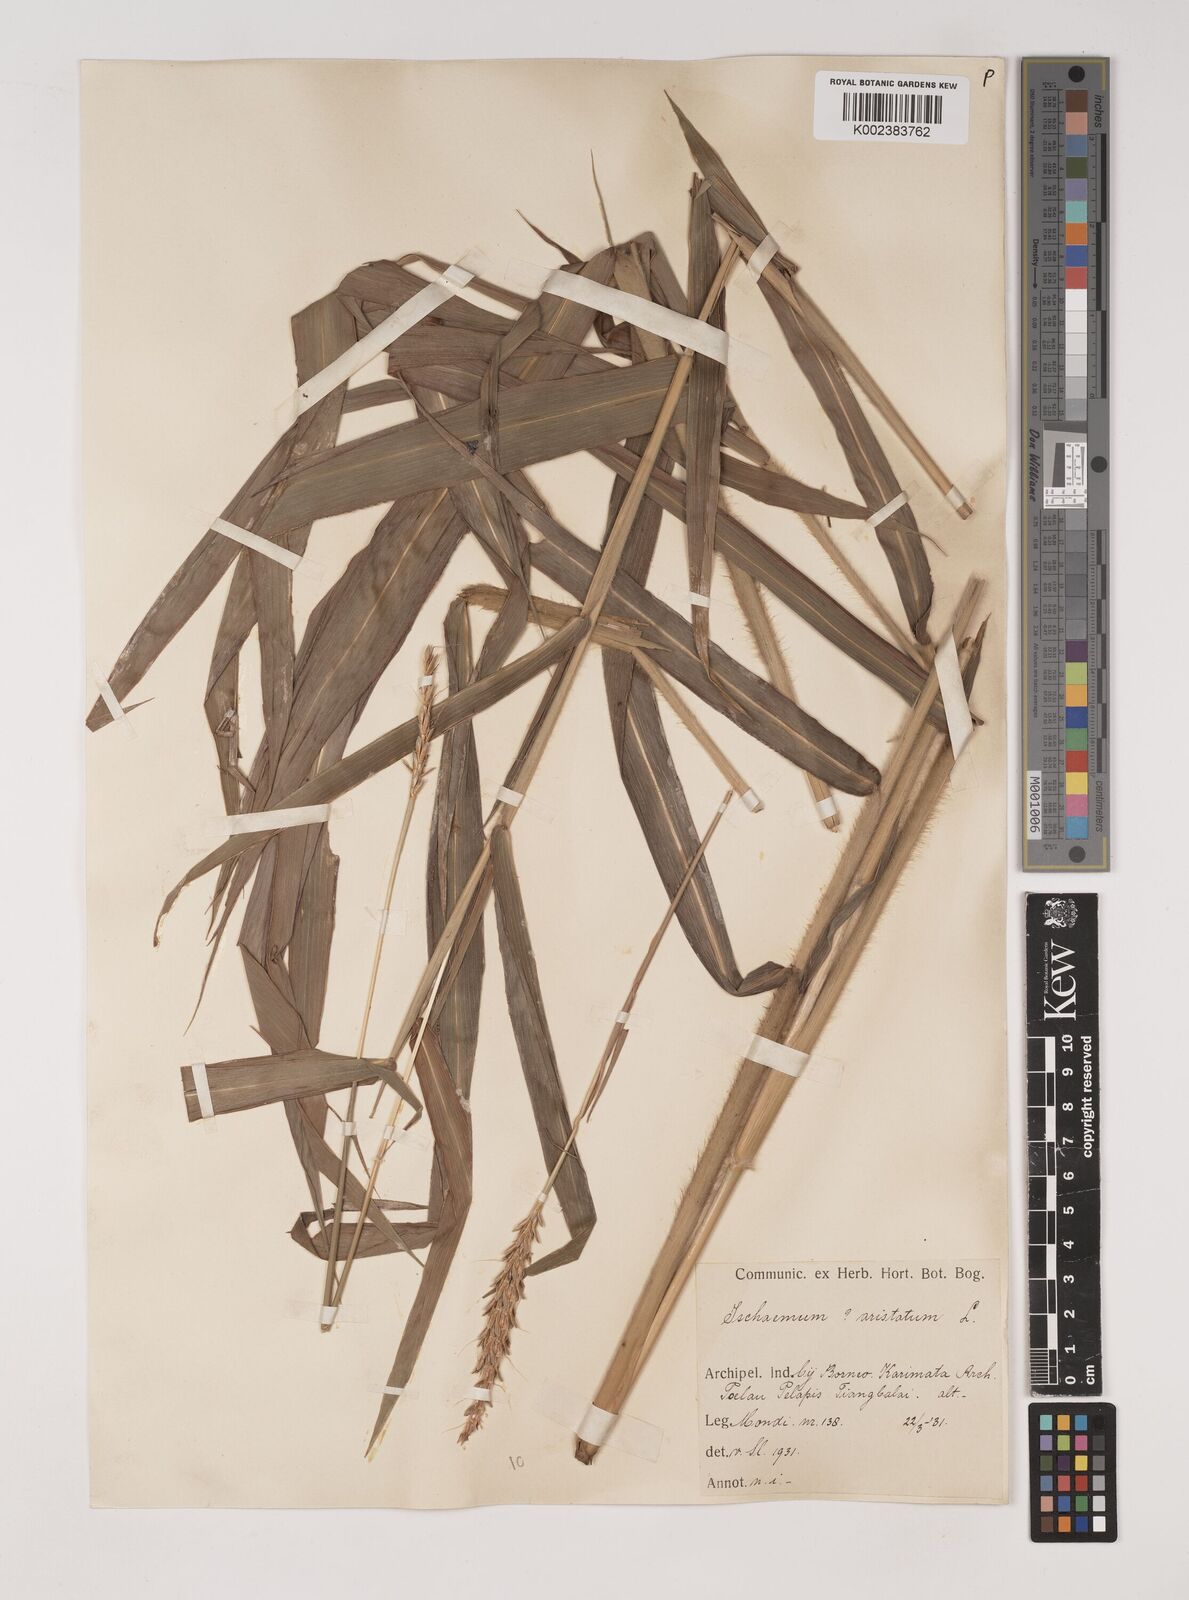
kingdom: Plantae
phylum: Tracheophyta
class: Liliopsida
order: Poales
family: Poaceae
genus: Ischaemum
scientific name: Ischaemum barbatum
